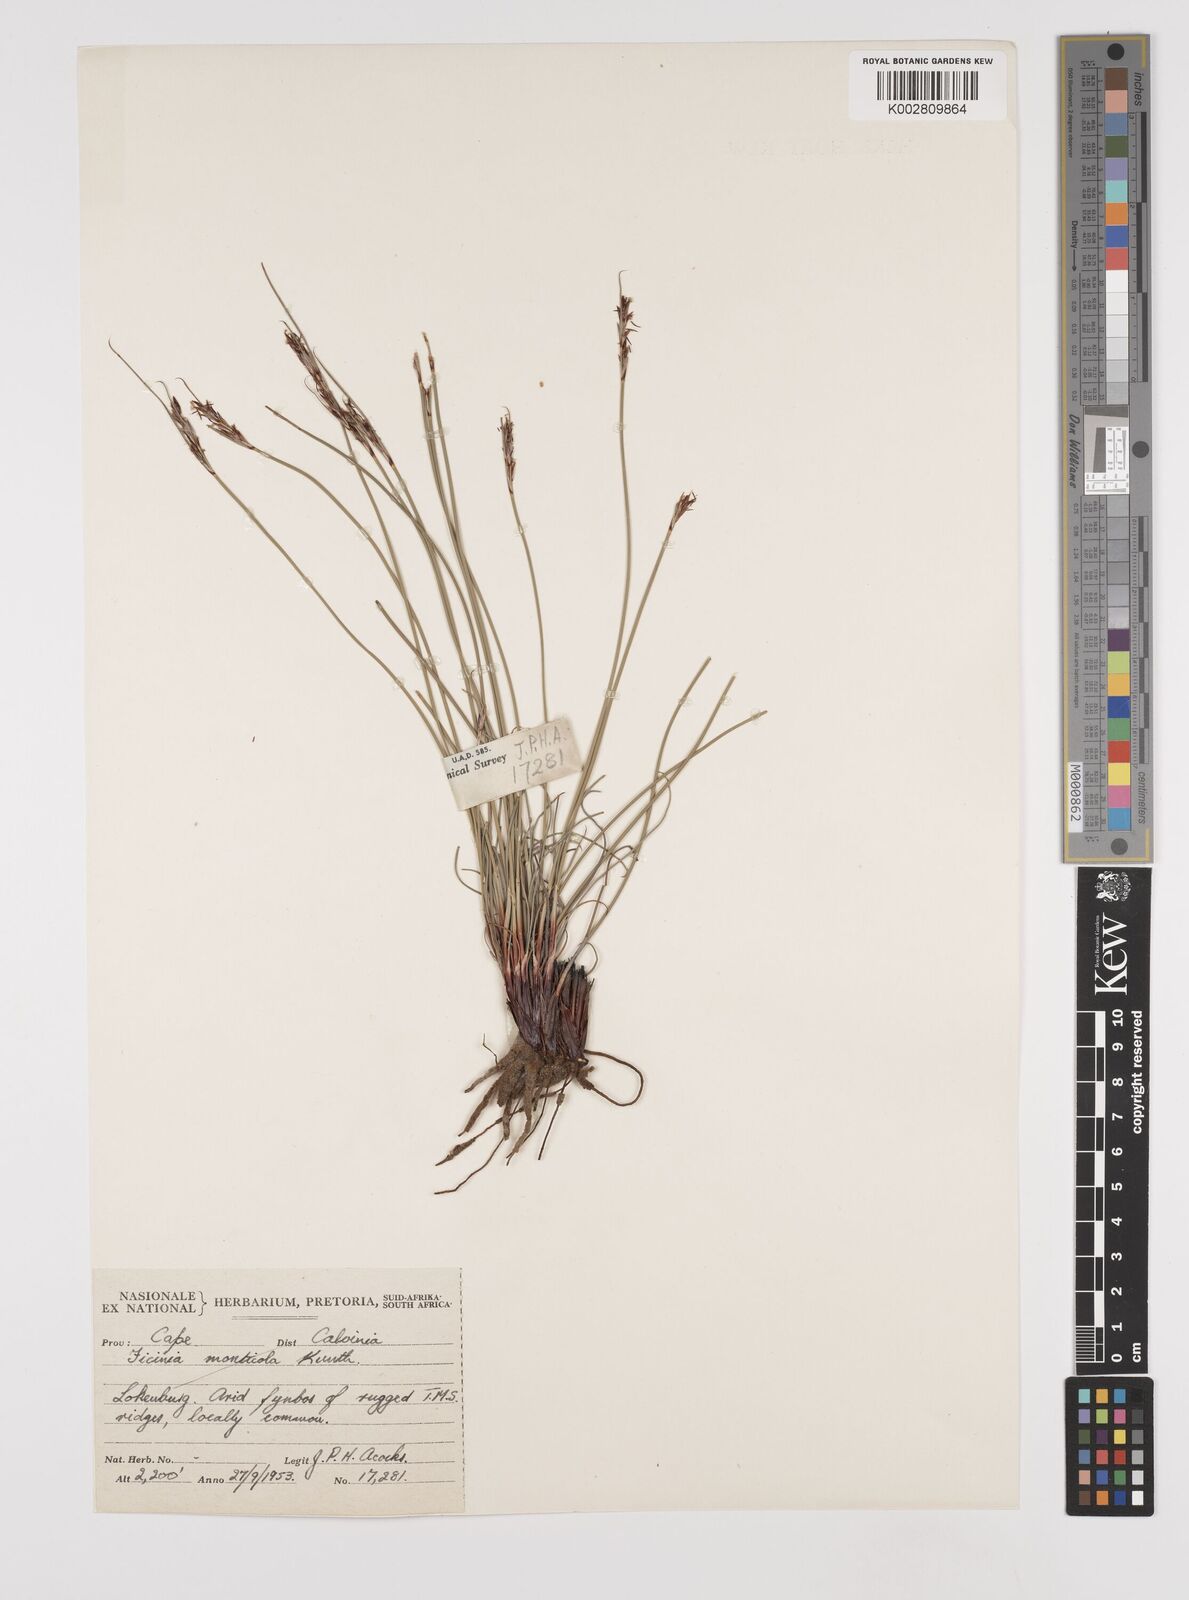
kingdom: Plantae
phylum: Tracheophyta
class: Liliopsida
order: Poales
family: Cyperaceae
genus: Schoenus
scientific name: Schoenus
